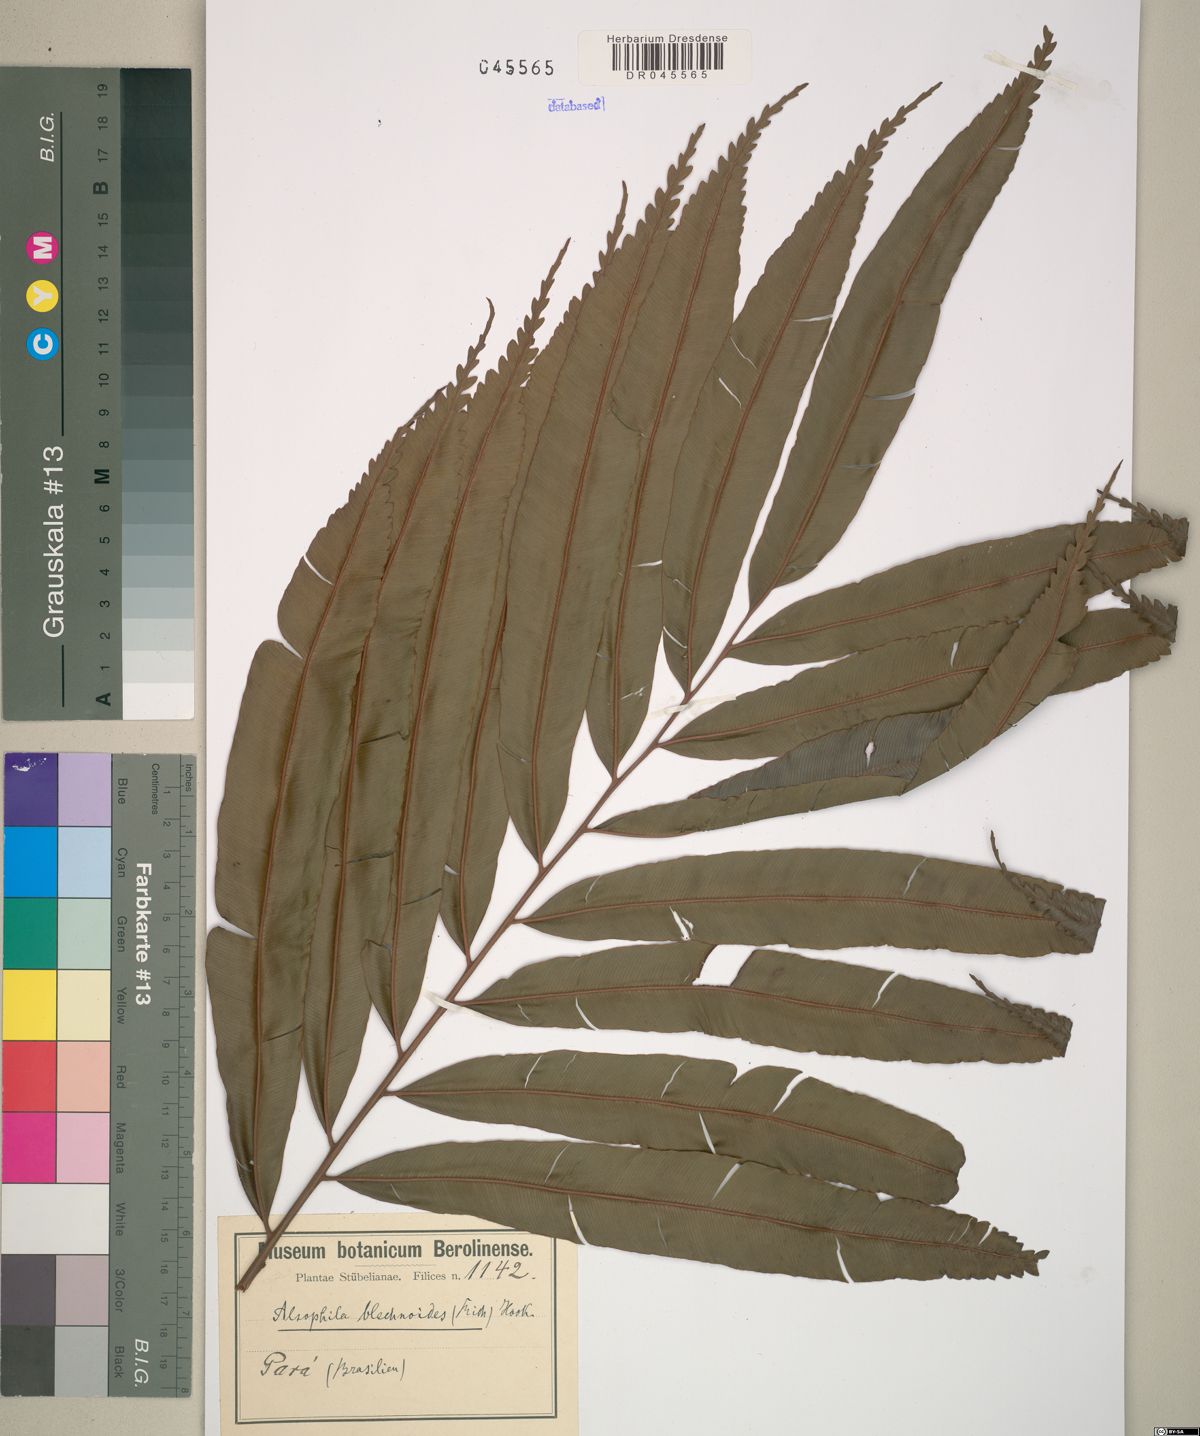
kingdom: Plantae
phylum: Tracheophyta
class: Polypodiopsida
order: Cyatheales
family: Metaxyaceae
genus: Metaxya
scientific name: Metaxya rostrata
